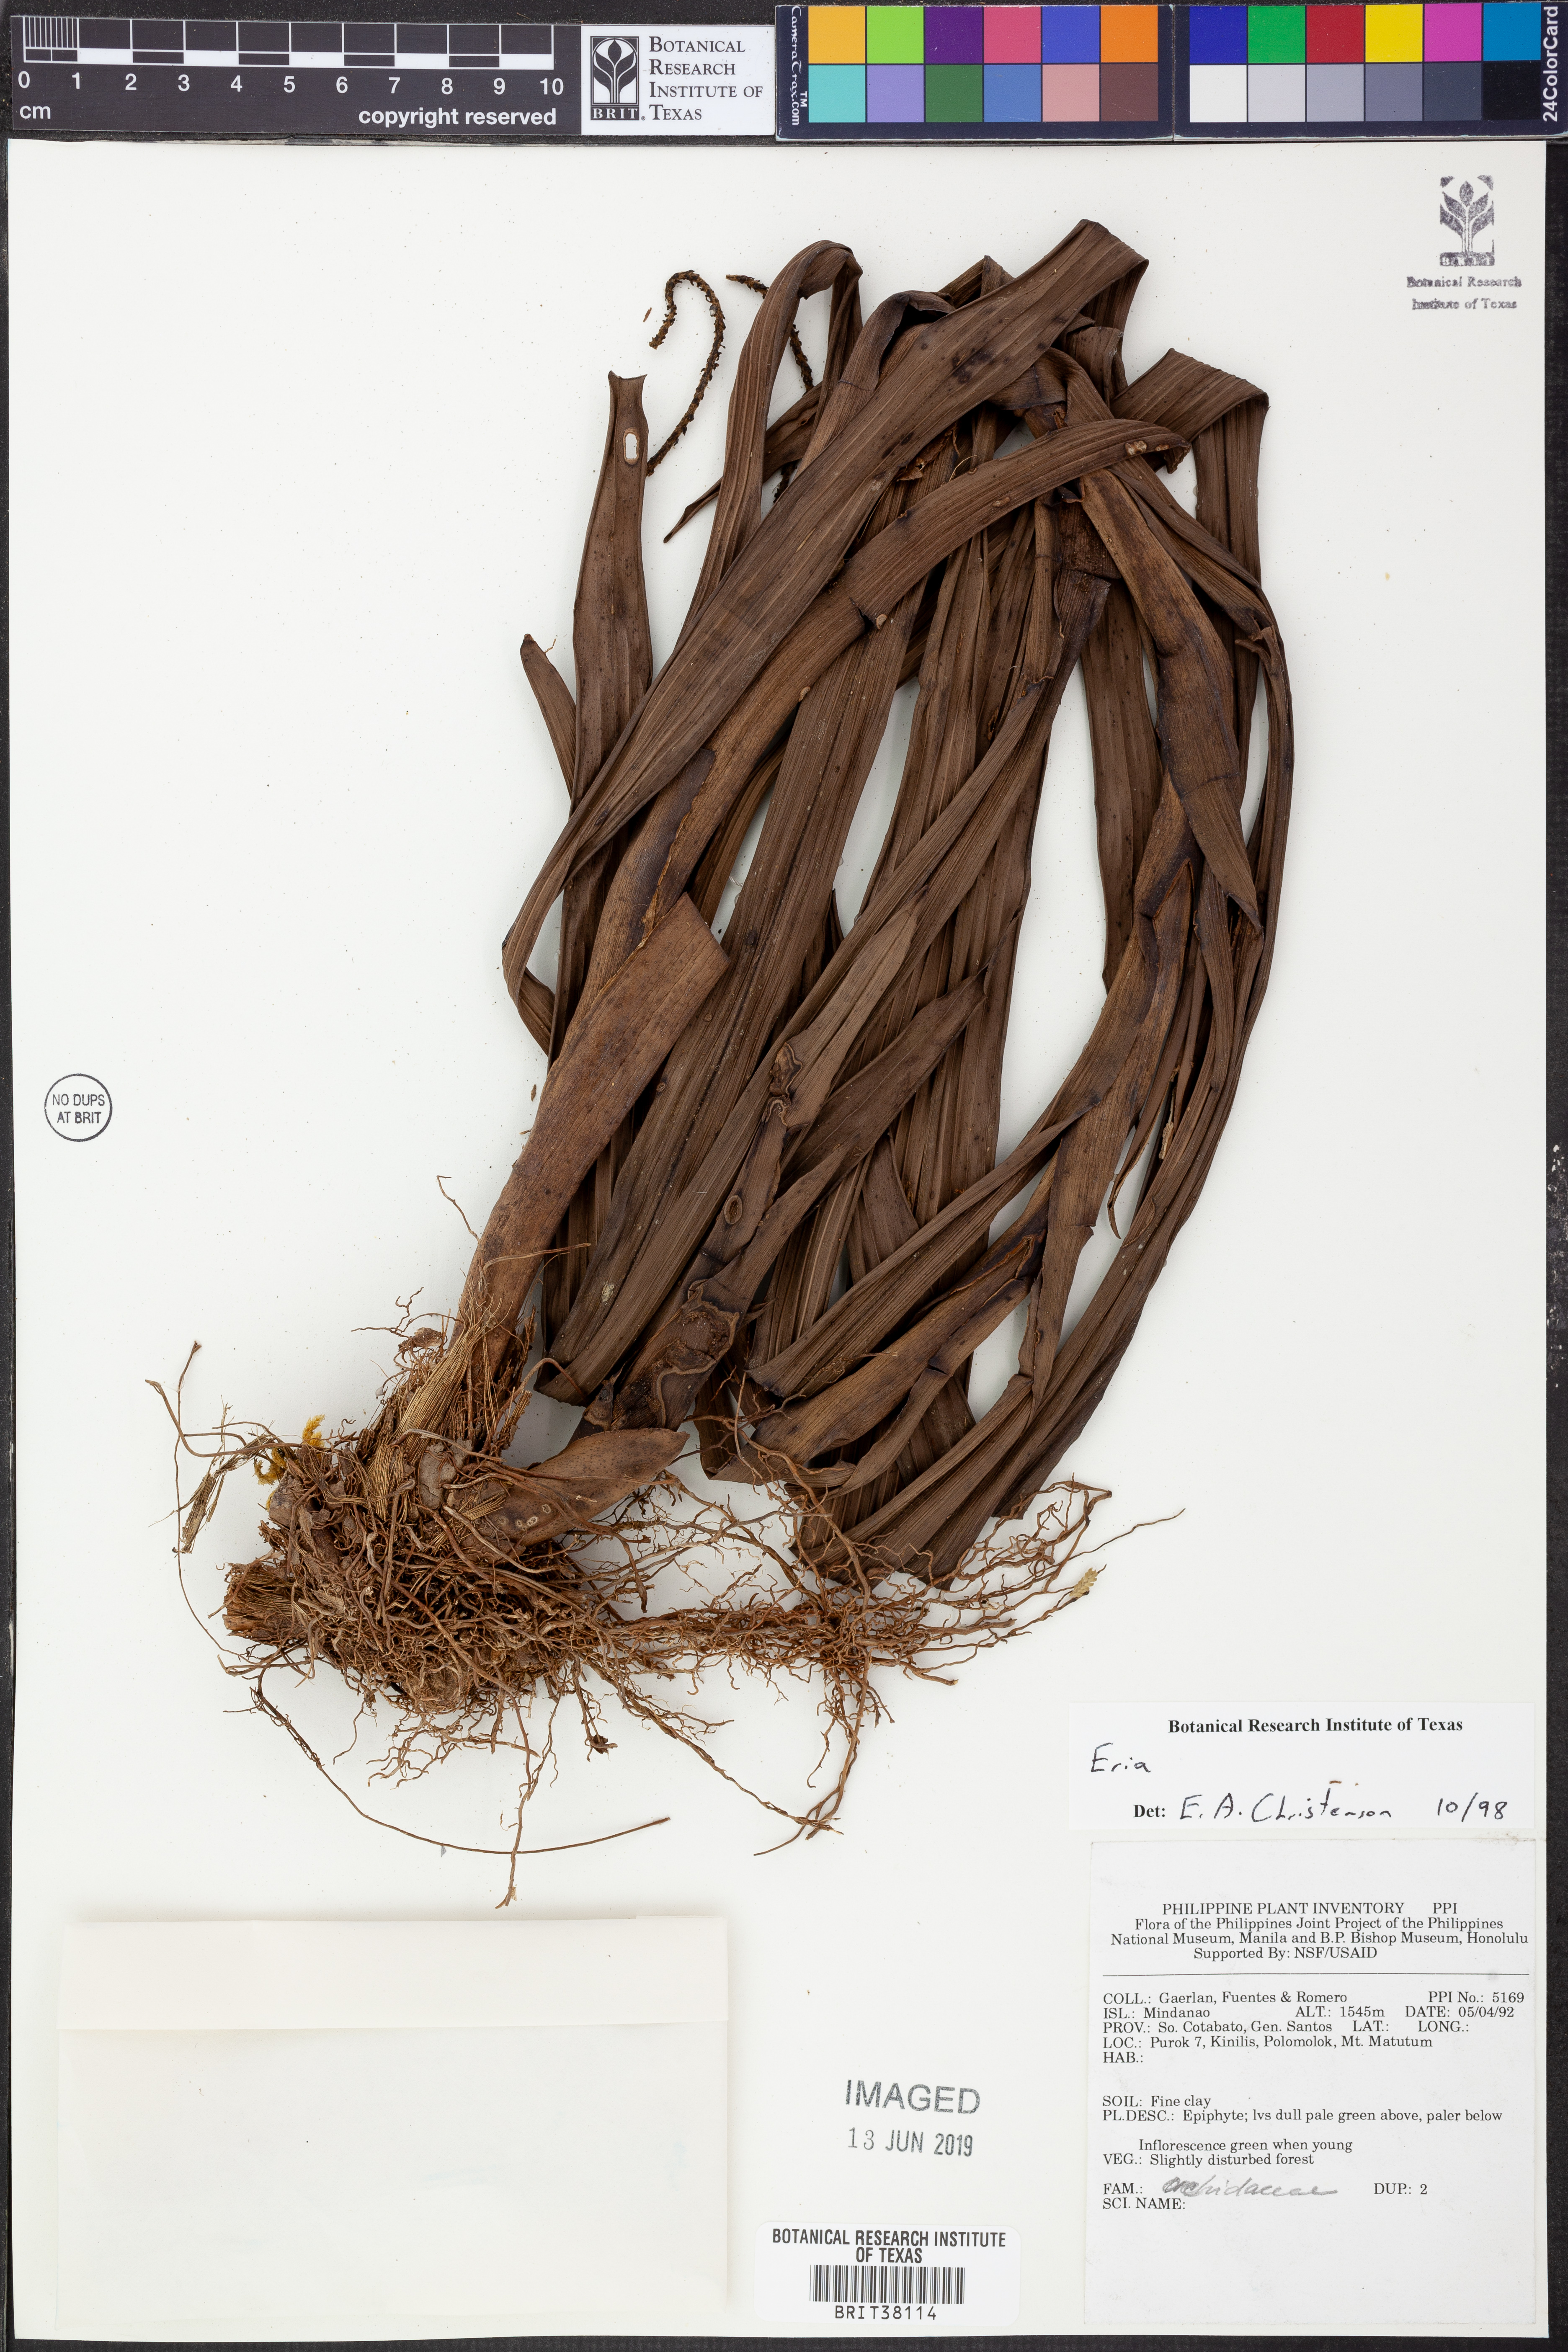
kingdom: Plantae
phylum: Tracheophyta
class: Liliopsida
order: Asparagales
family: Orchidaceae
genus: Eria
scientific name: Eria
